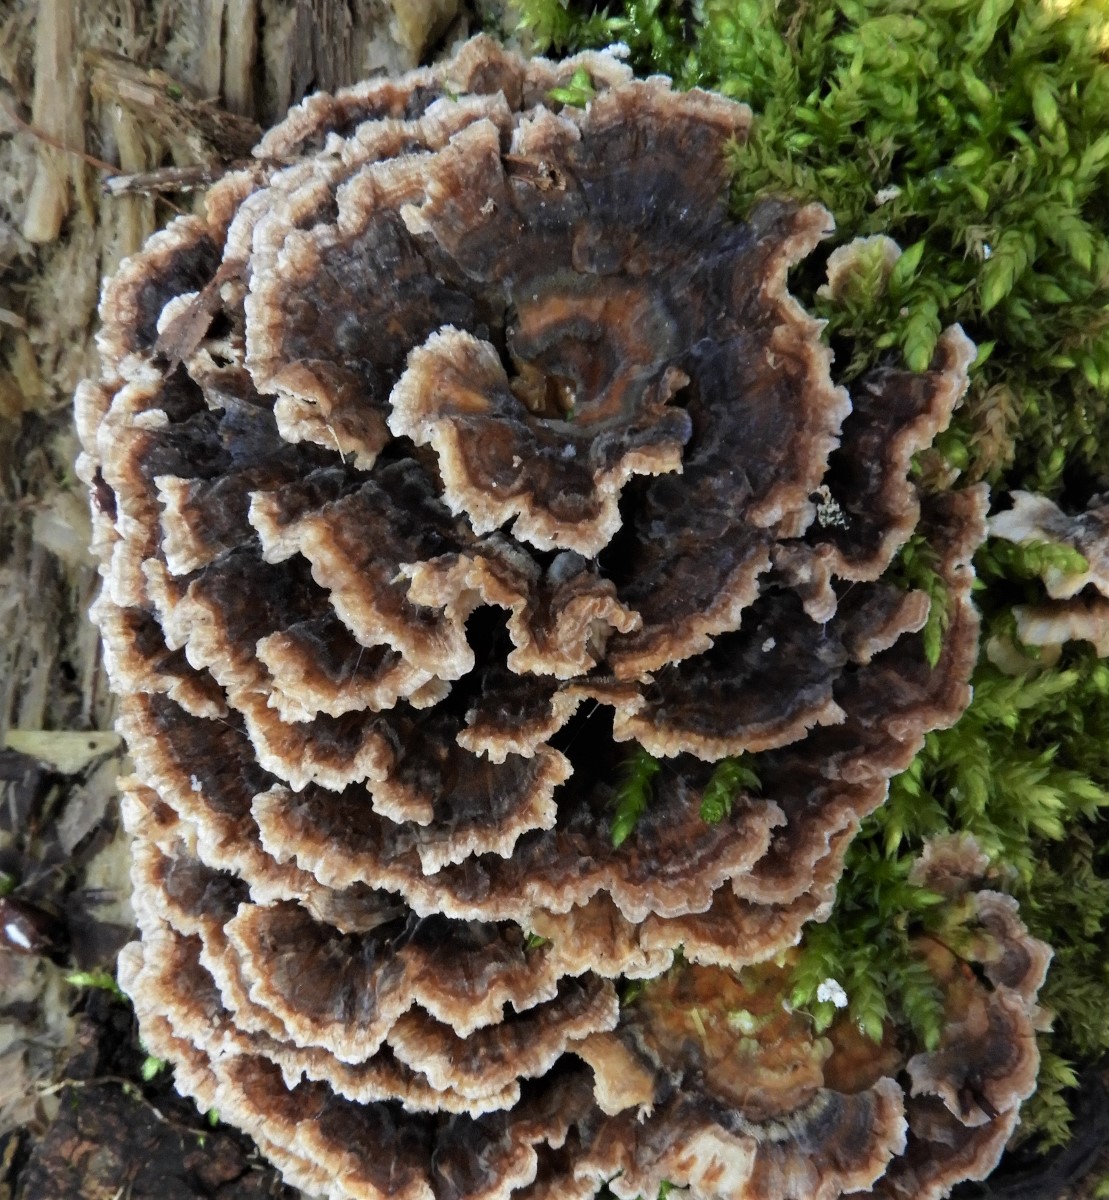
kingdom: Fungi
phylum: Basidiomycota
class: Agaricomycetes
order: Polyporales
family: Polyporaceae
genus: Trametes
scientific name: Trametes versicolor
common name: broget læderporesvamp
